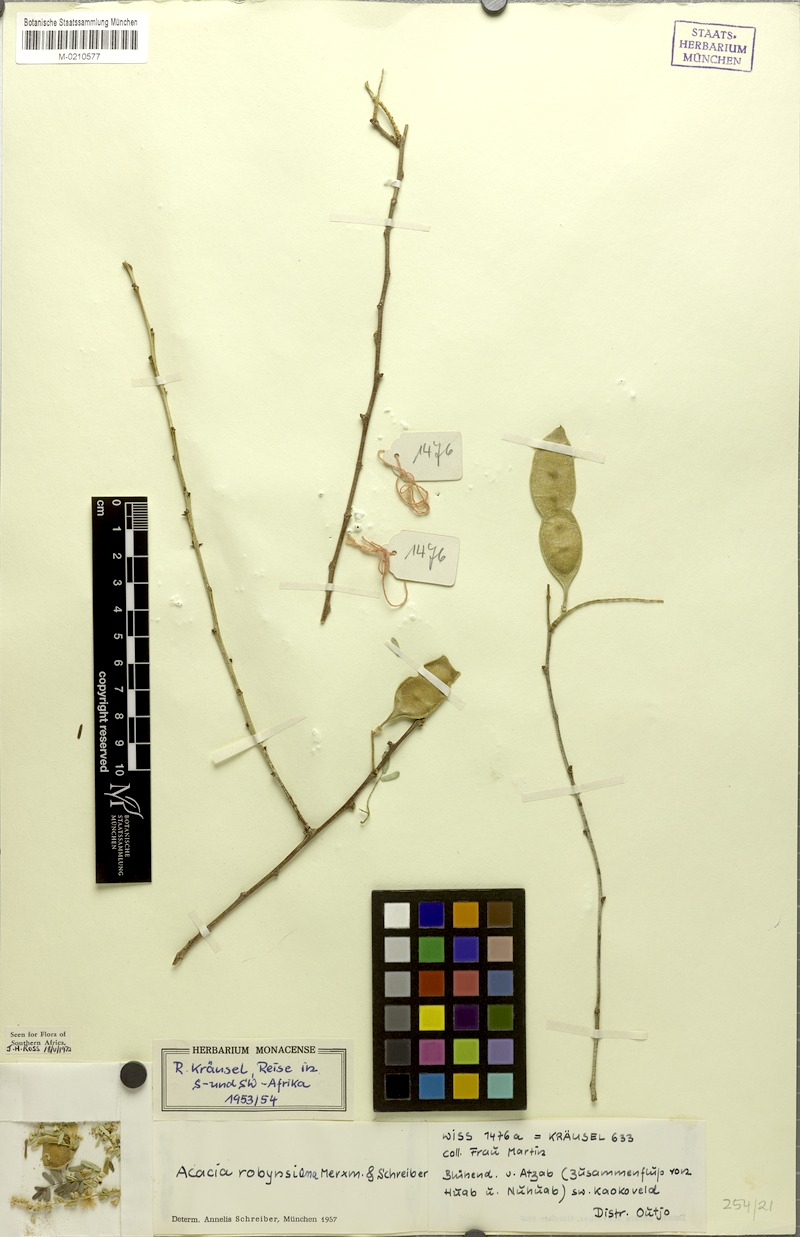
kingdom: Plantae
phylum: Tracheophyta
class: Magnoliopsida
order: Fabales
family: Fabaceae
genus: Senegalia
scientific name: Senegalia robynsiana
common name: Whip stick acacia
